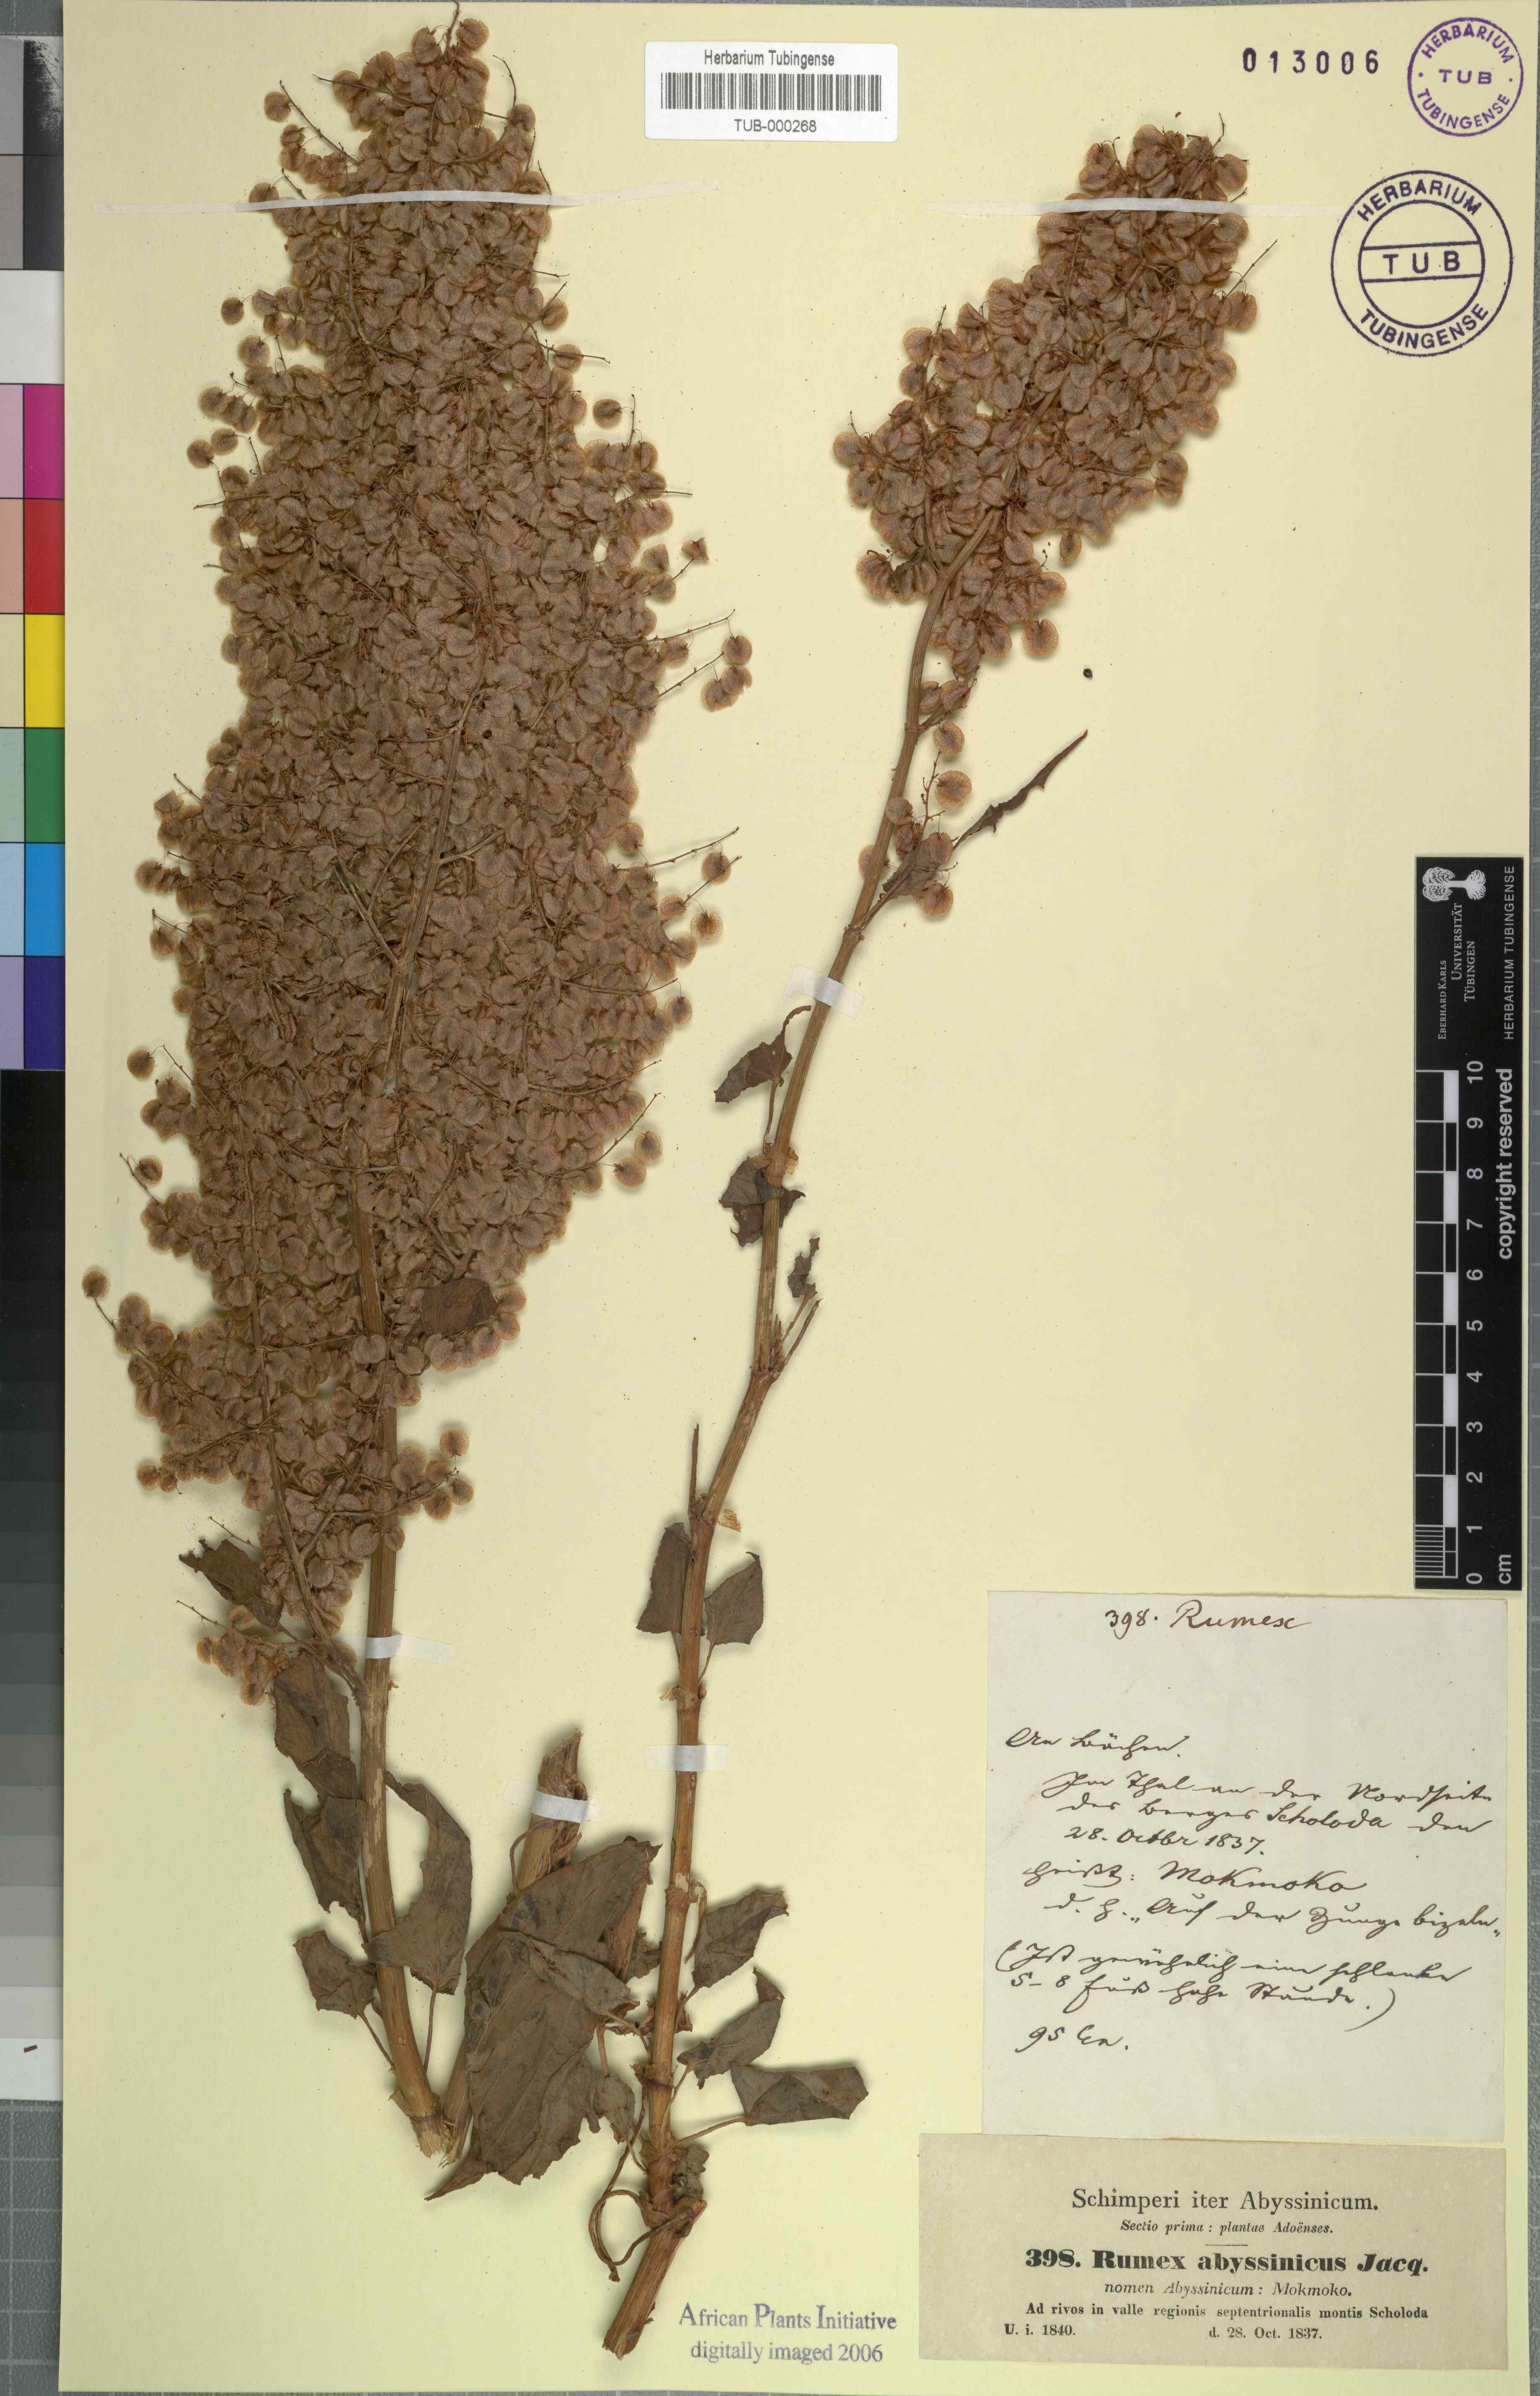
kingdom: Plantae
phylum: Tracheophyta
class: Magnoliopsida
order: Caryophyllales
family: Polygonaceae
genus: Rumex
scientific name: Rumex abyssinicus
